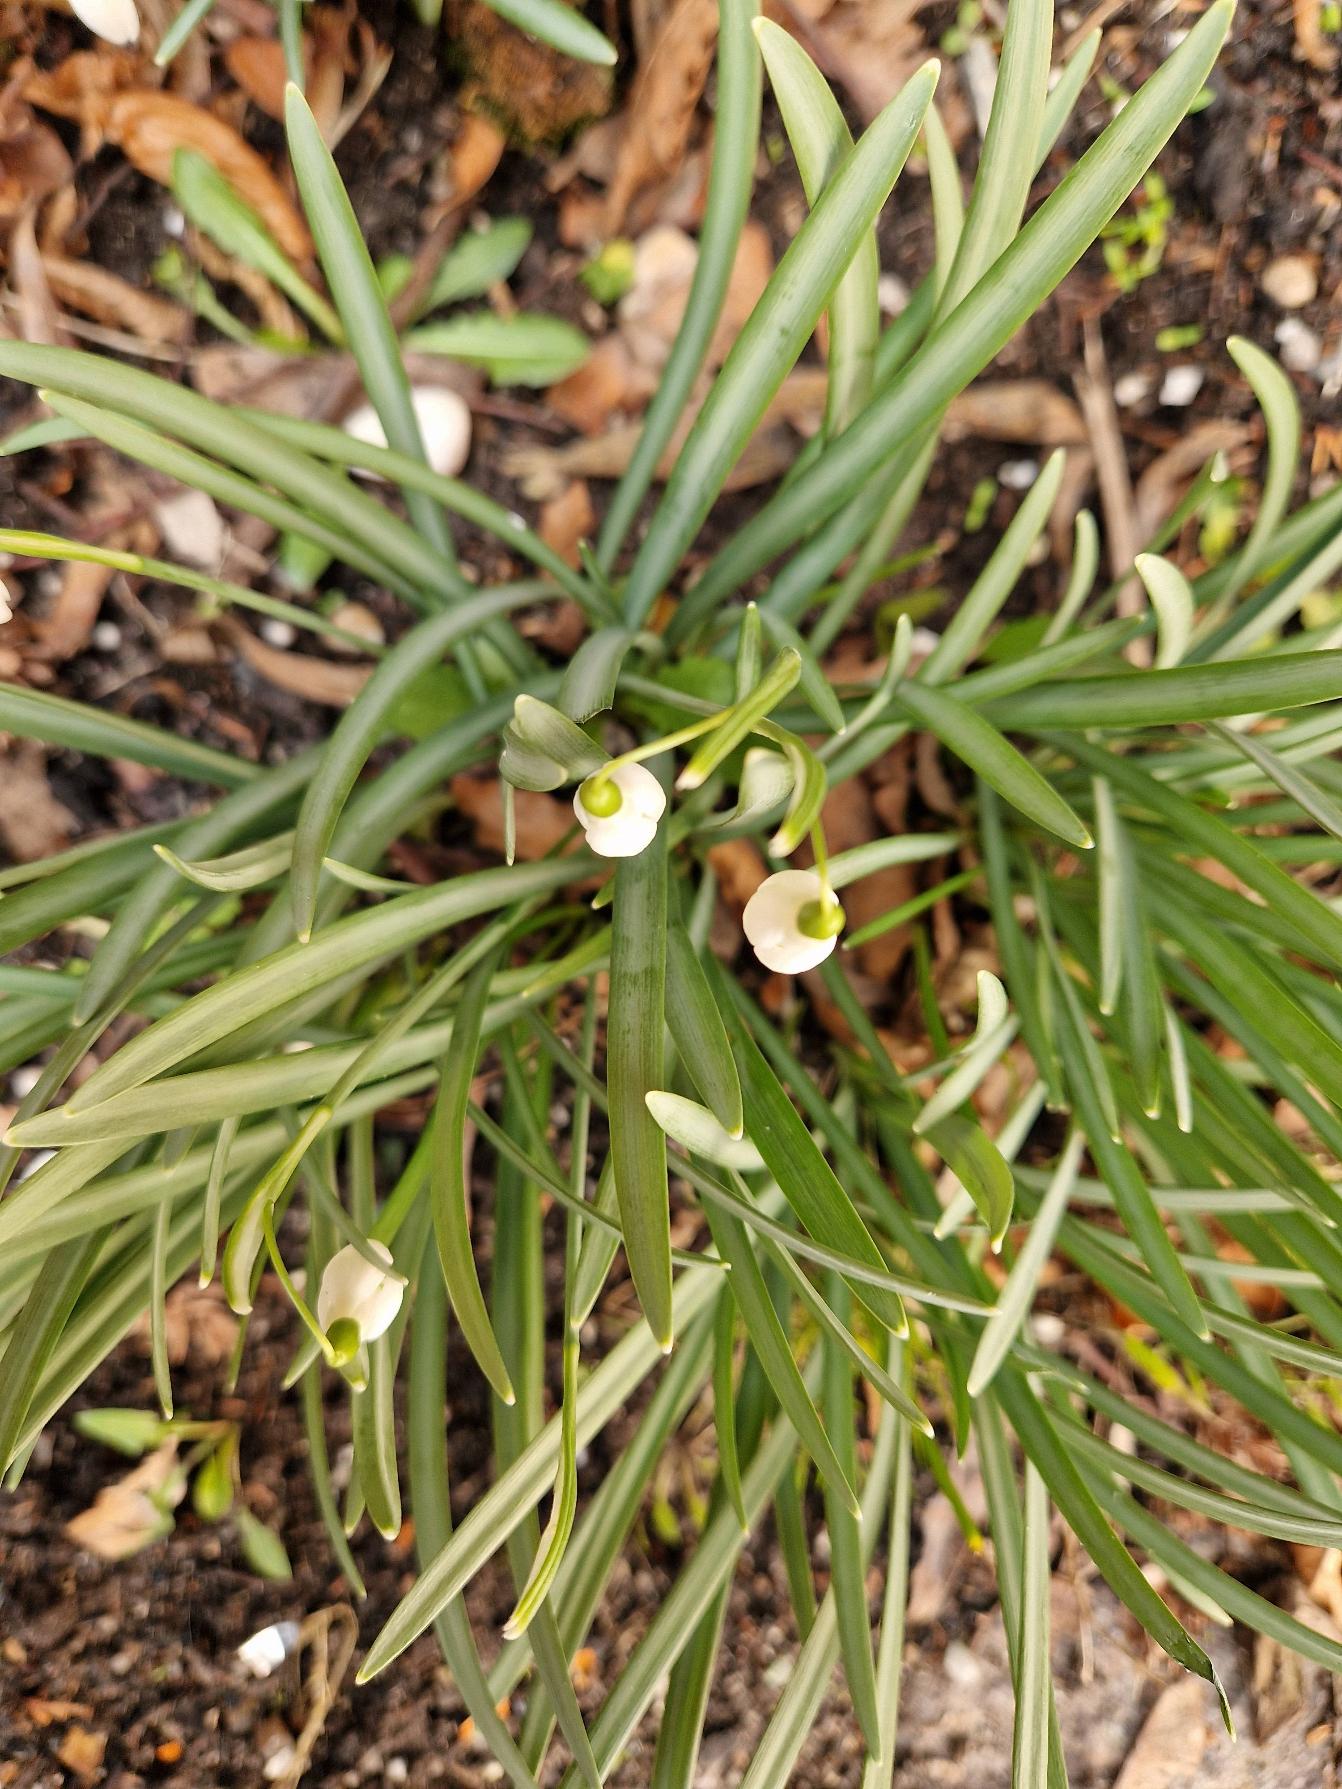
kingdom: Plantae
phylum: Tracheophyta
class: Liliopsida
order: Asparagales
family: Amaryllidaceae
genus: Galanthus
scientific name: Galanthus nivalis
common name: Vintergæk
